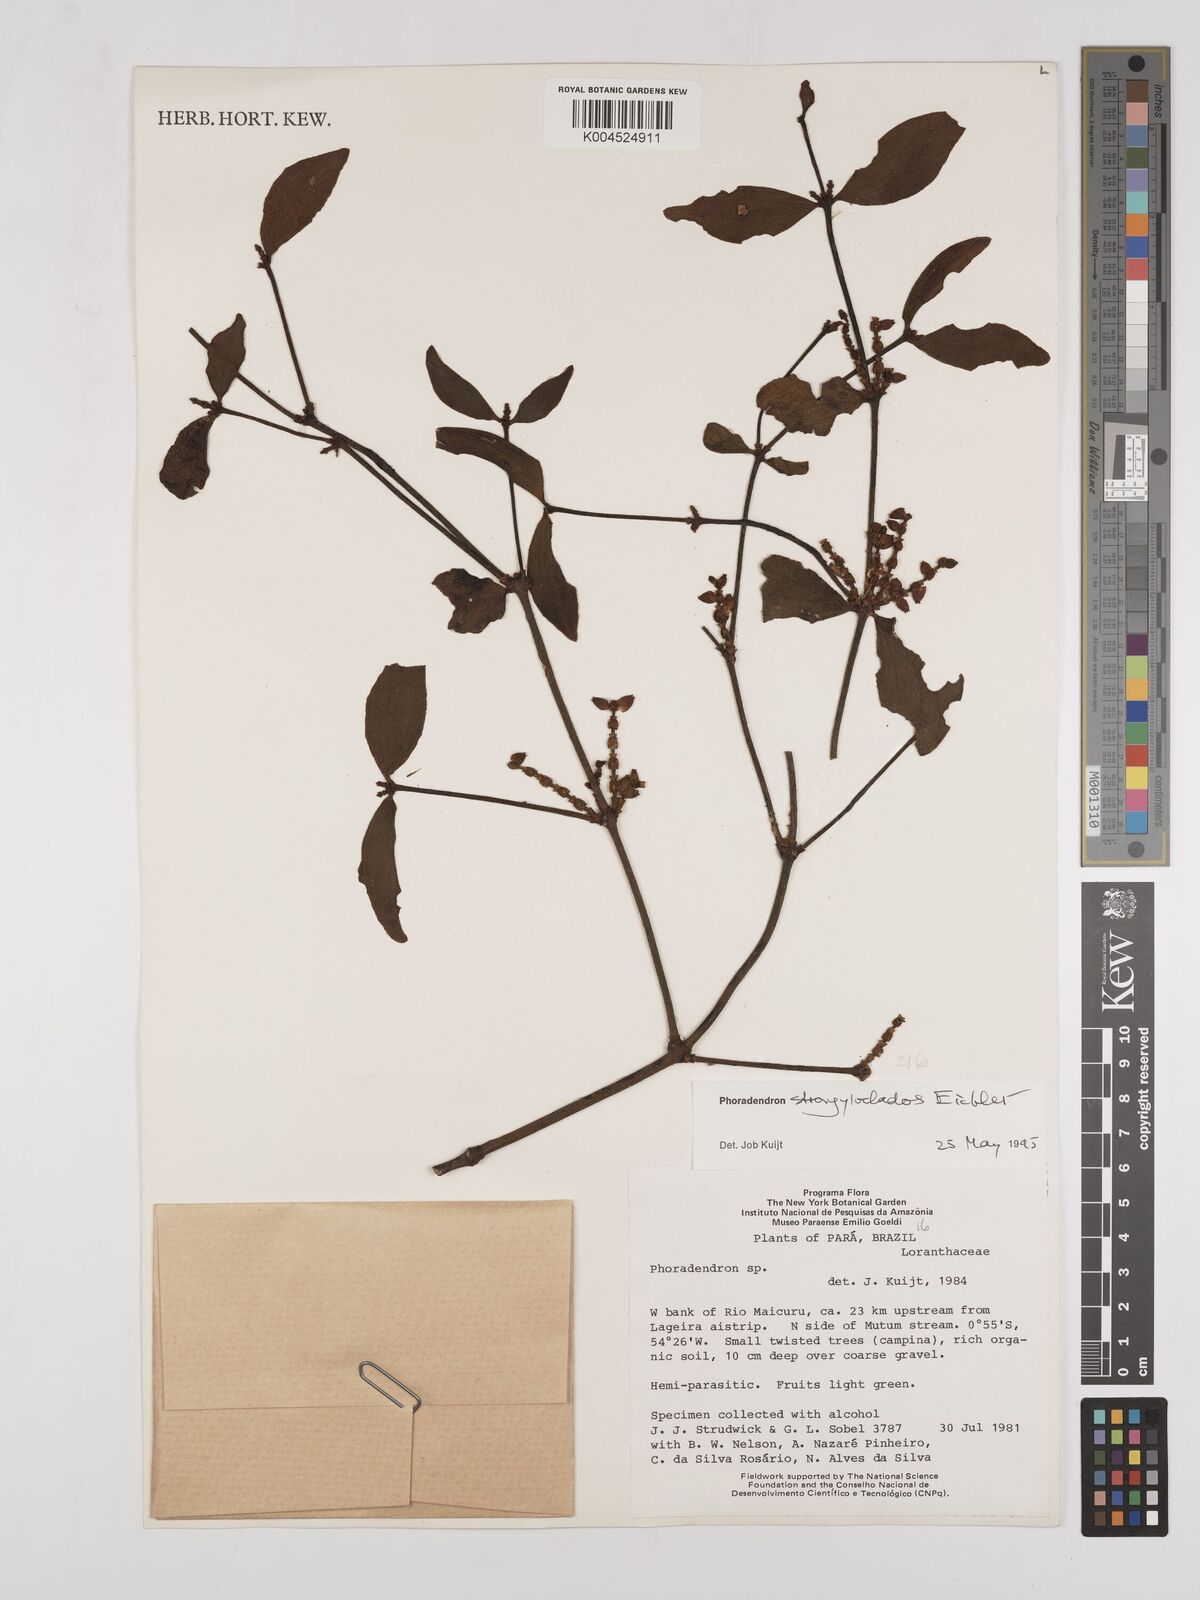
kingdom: Plantae
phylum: Tracheophyta
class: Magnoliopsida
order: Santalales
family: Viscaceae
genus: Phoradendron
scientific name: Phoradendron strongyloclados
